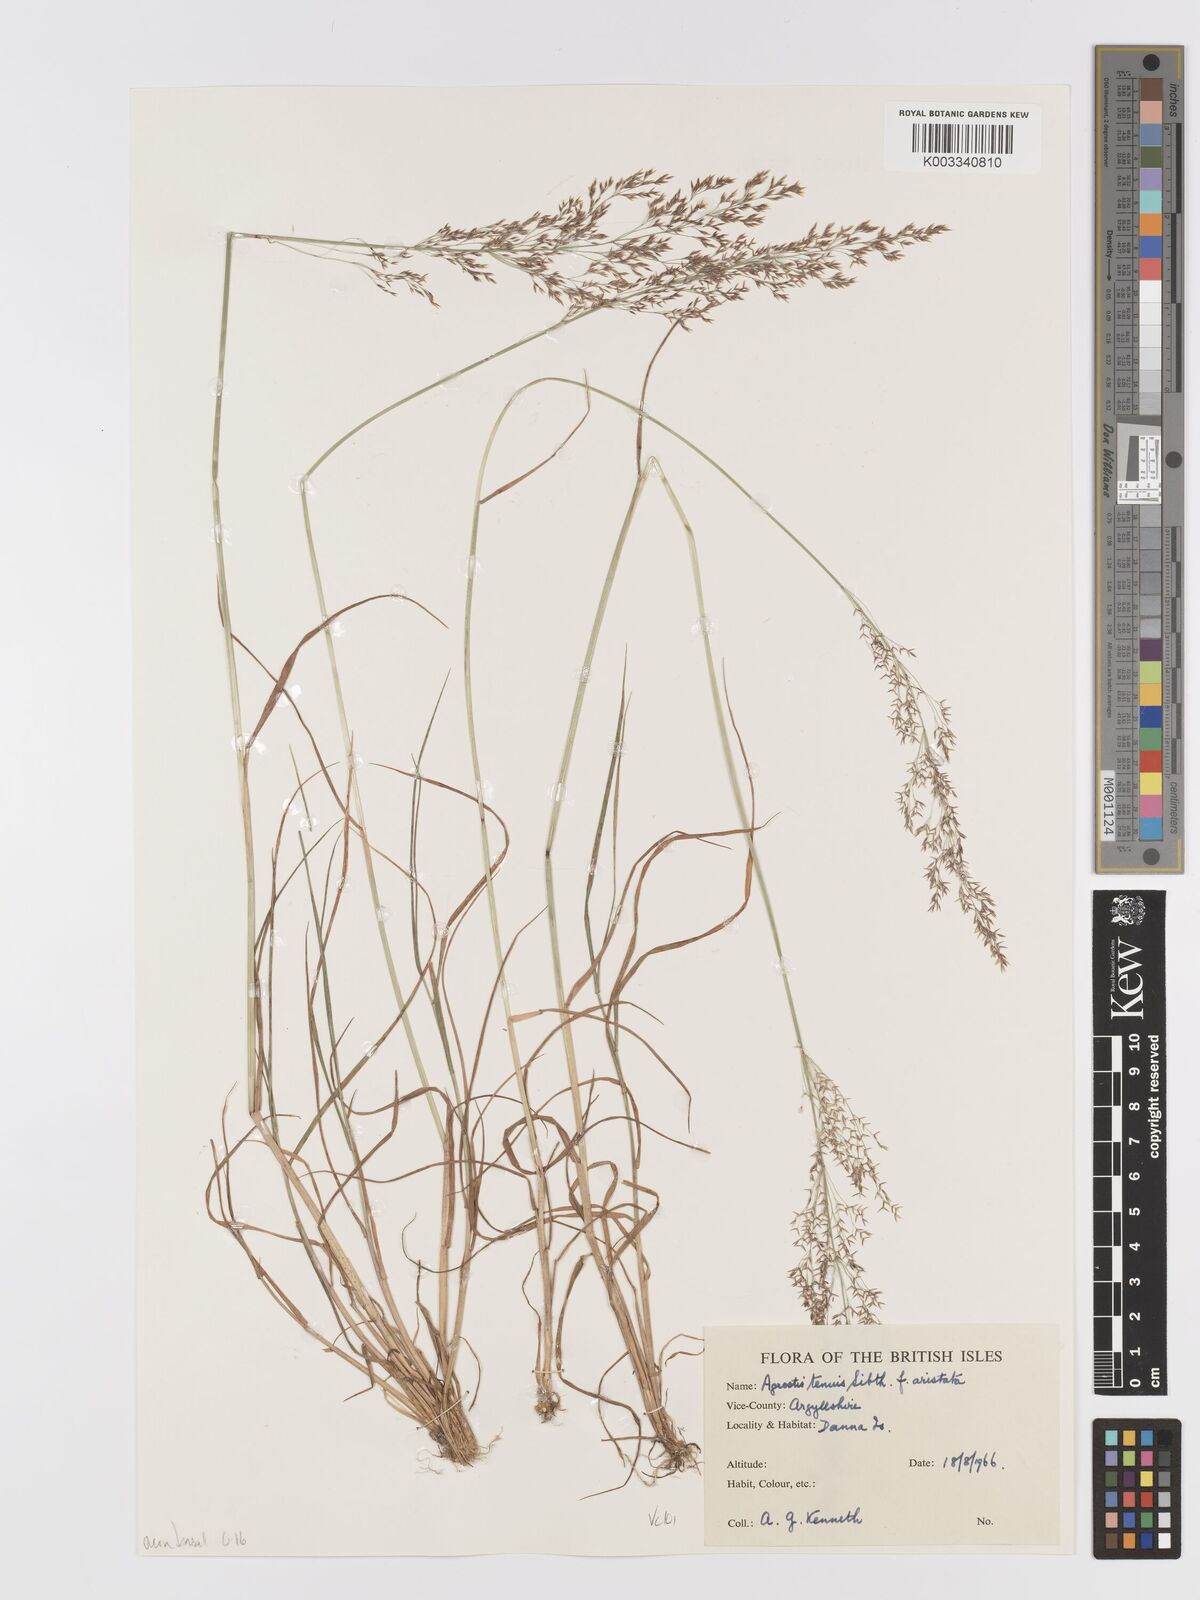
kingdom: Plantae
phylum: Tracheophyta
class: Liliopsida
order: Poales
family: Poaceae
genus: Agrostis
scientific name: Agrostis capillaris
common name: Colonial bentgrass
